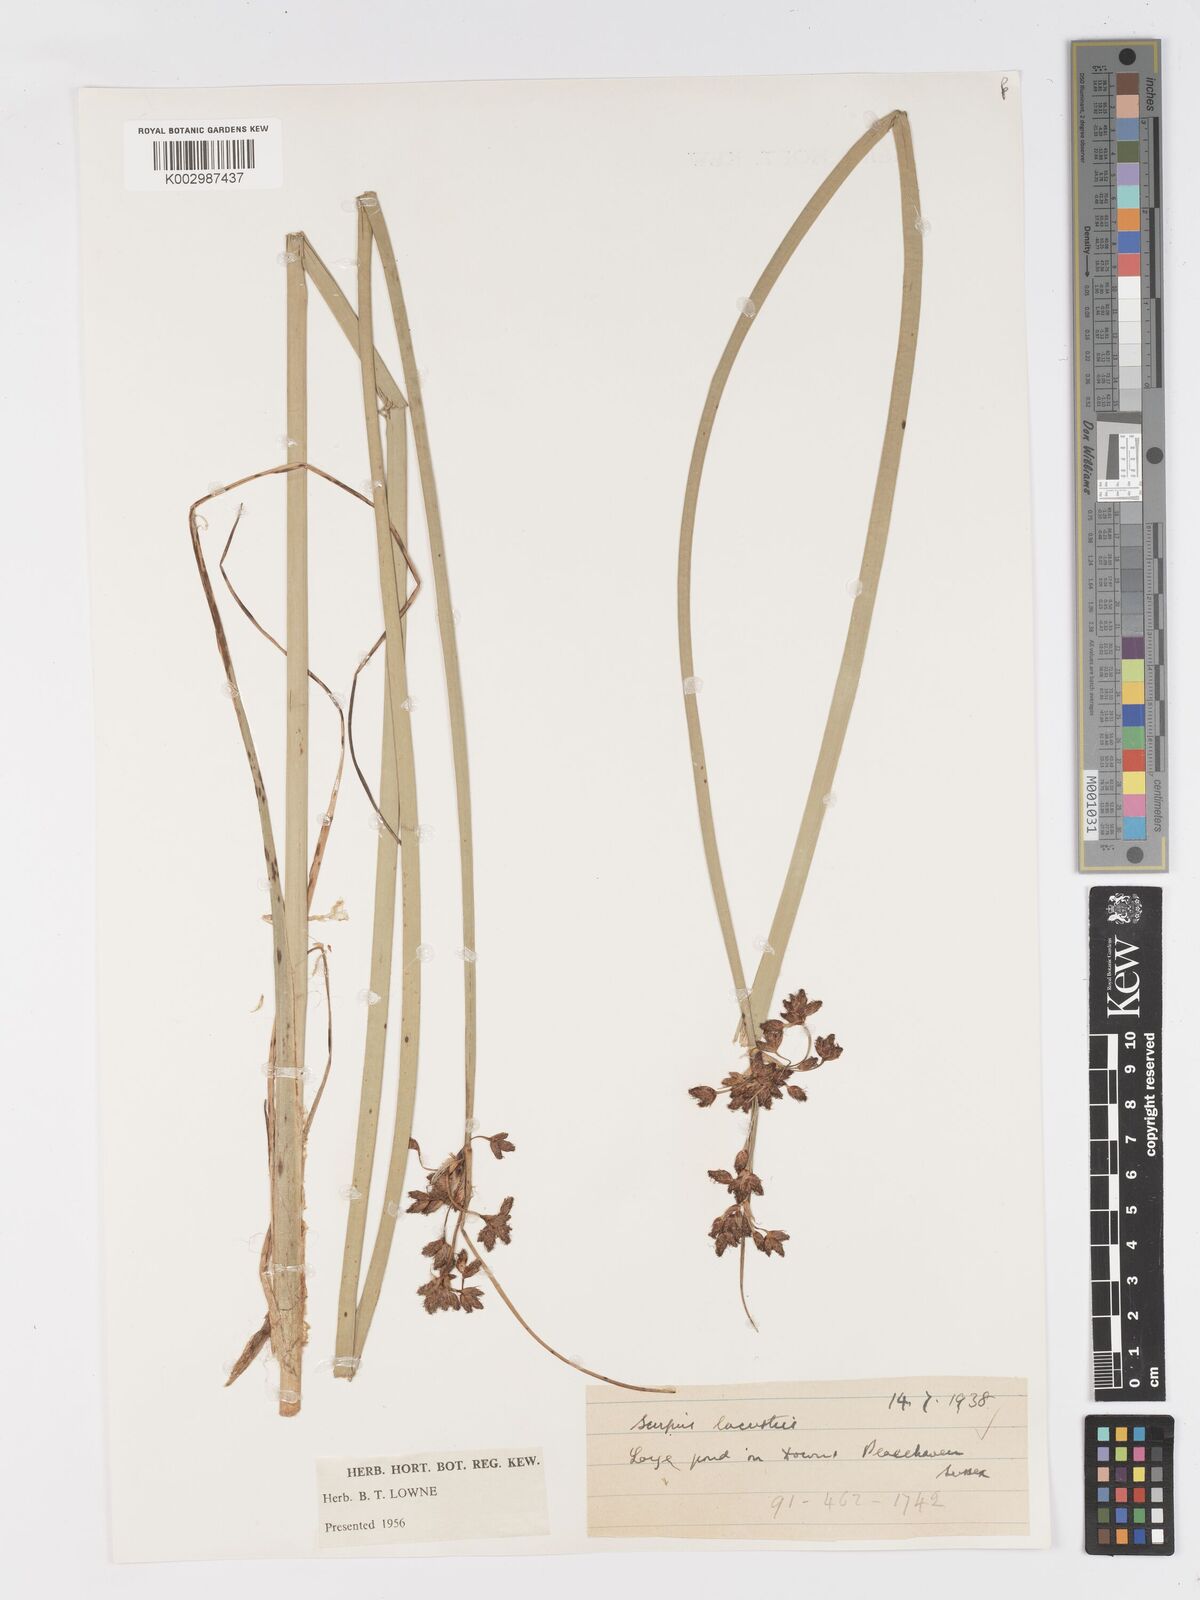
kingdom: Plantae
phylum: Tracheophyta
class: Liliopsida
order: Poales
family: Cyperaceae
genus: Schoenoplectus
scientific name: Schoenoplectus lacustris
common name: Common club-rush
